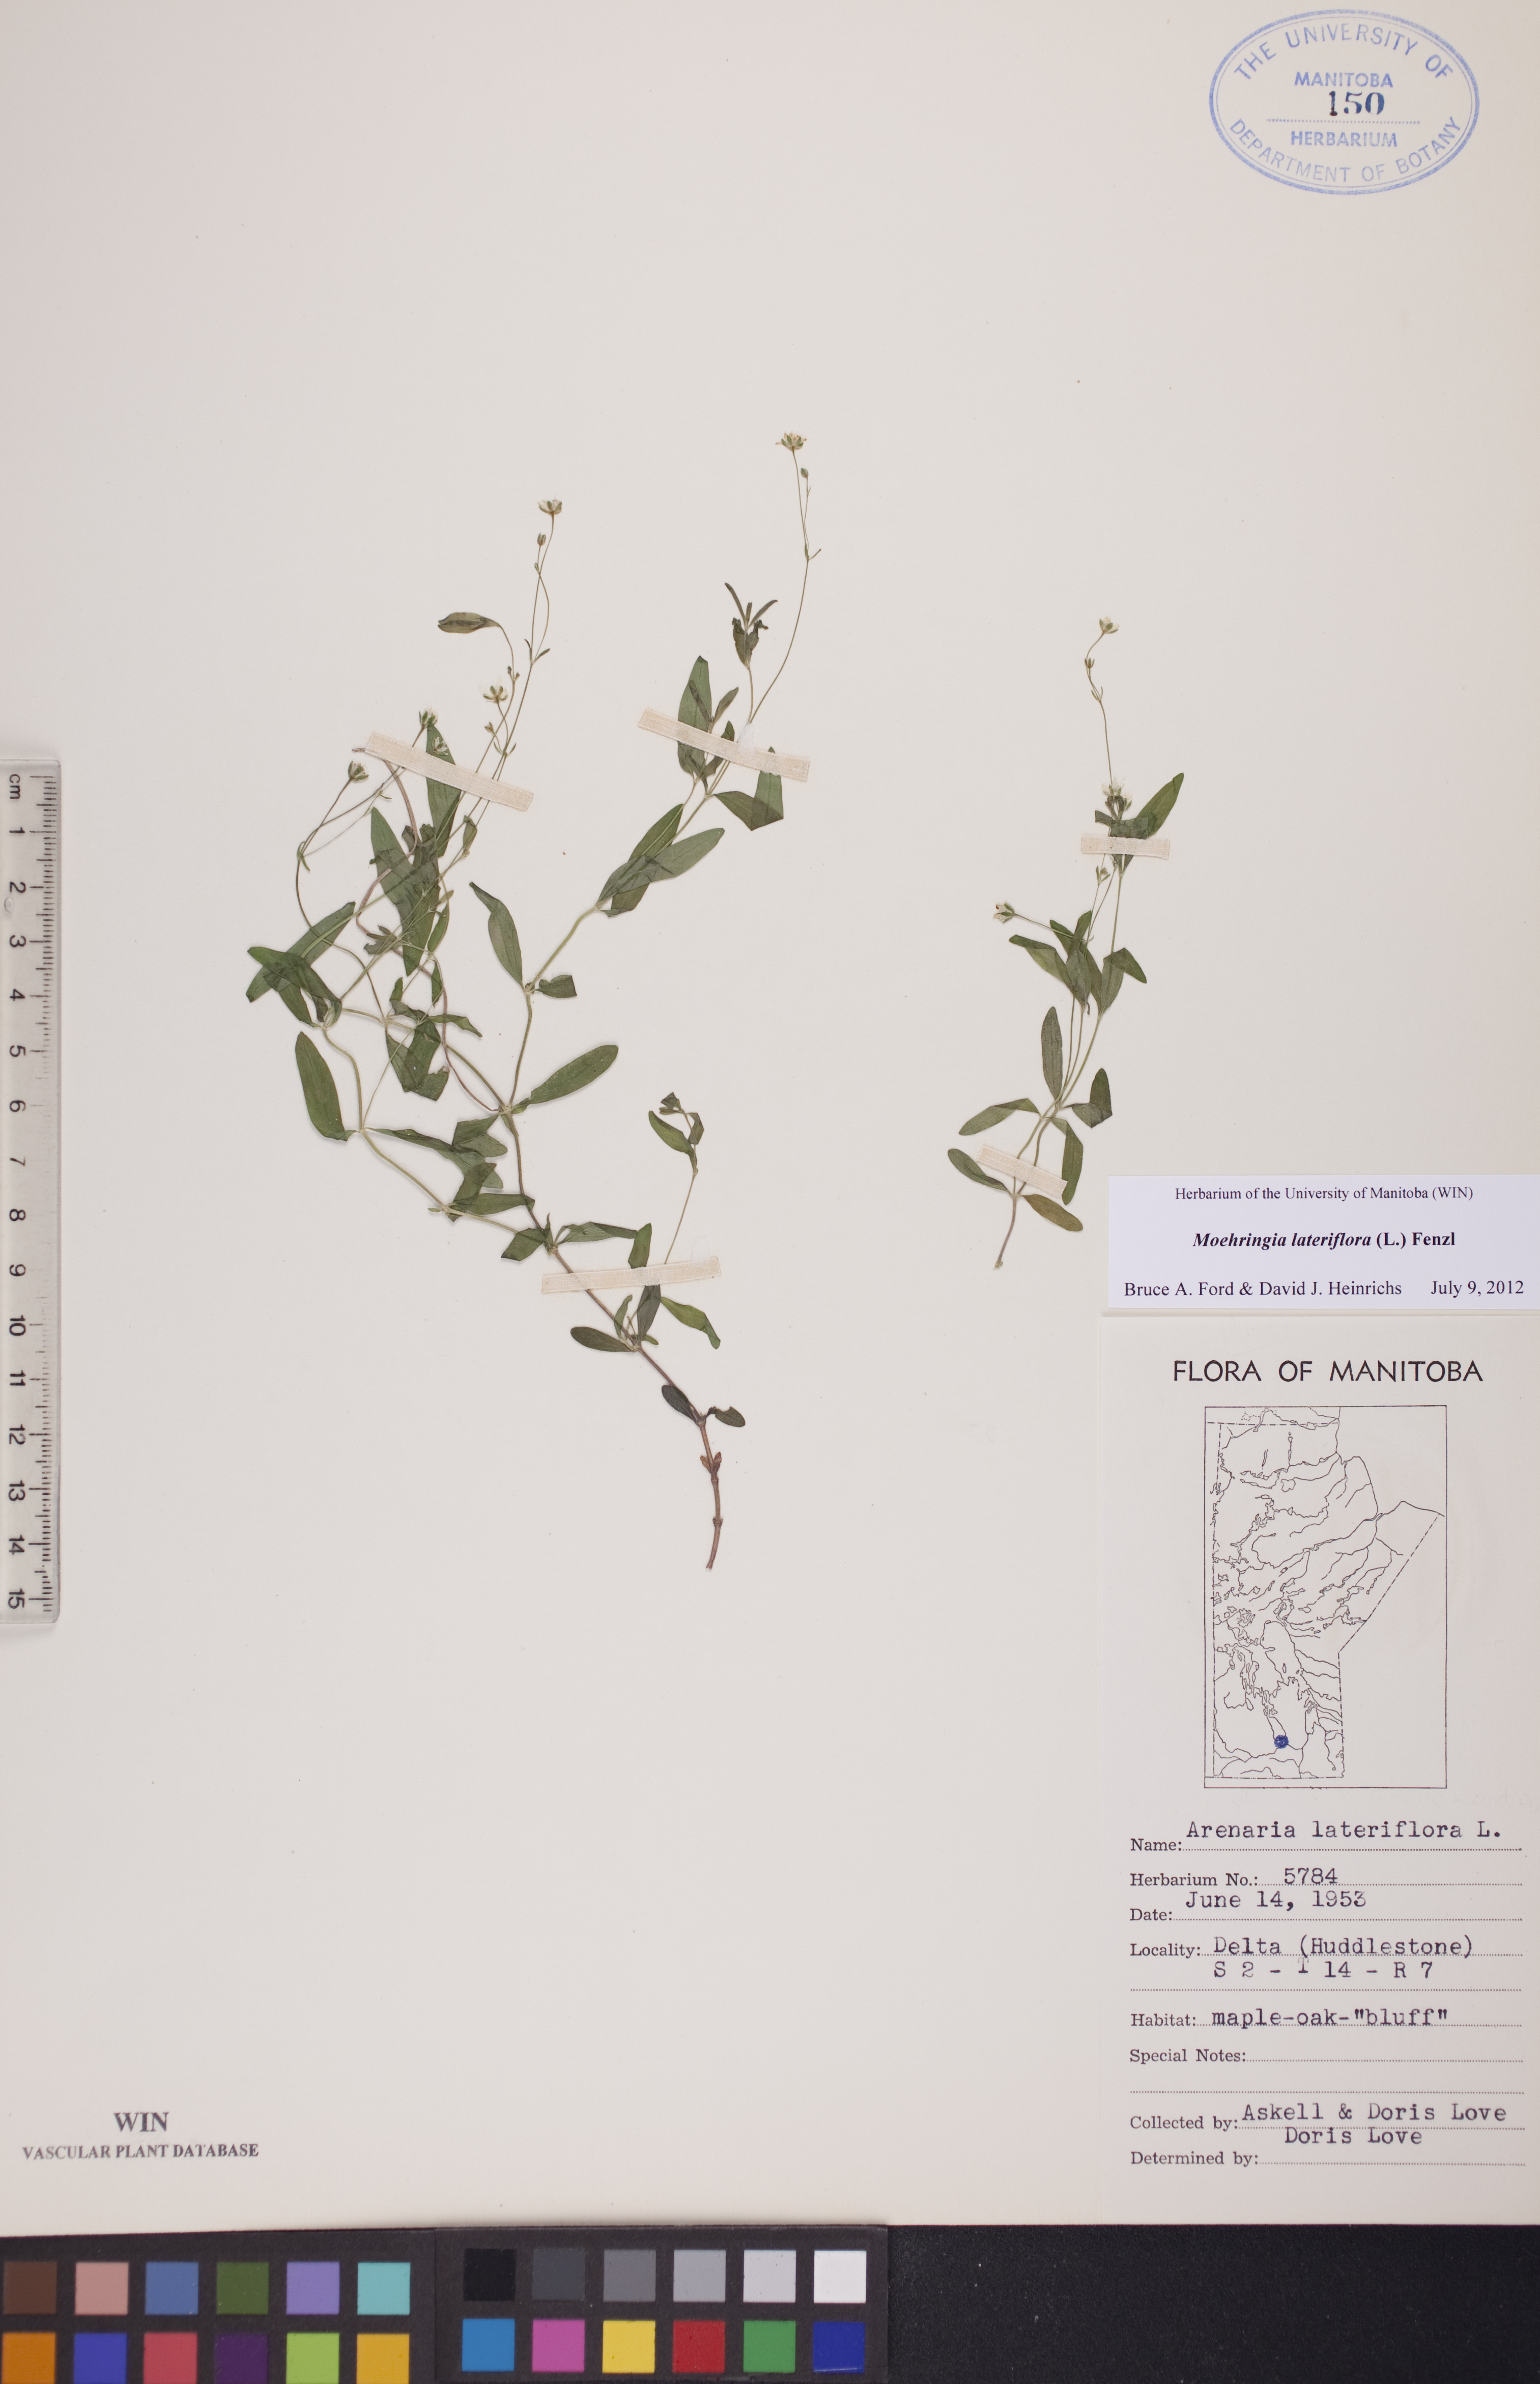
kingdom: Plantae
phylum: Tracheophyta
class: Magnoliopsida
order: Caryophyllales
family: Caryophyllaceae
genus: Moehringia
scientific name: Moehringia lateriflora
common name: Blunt-leaved sandwort
